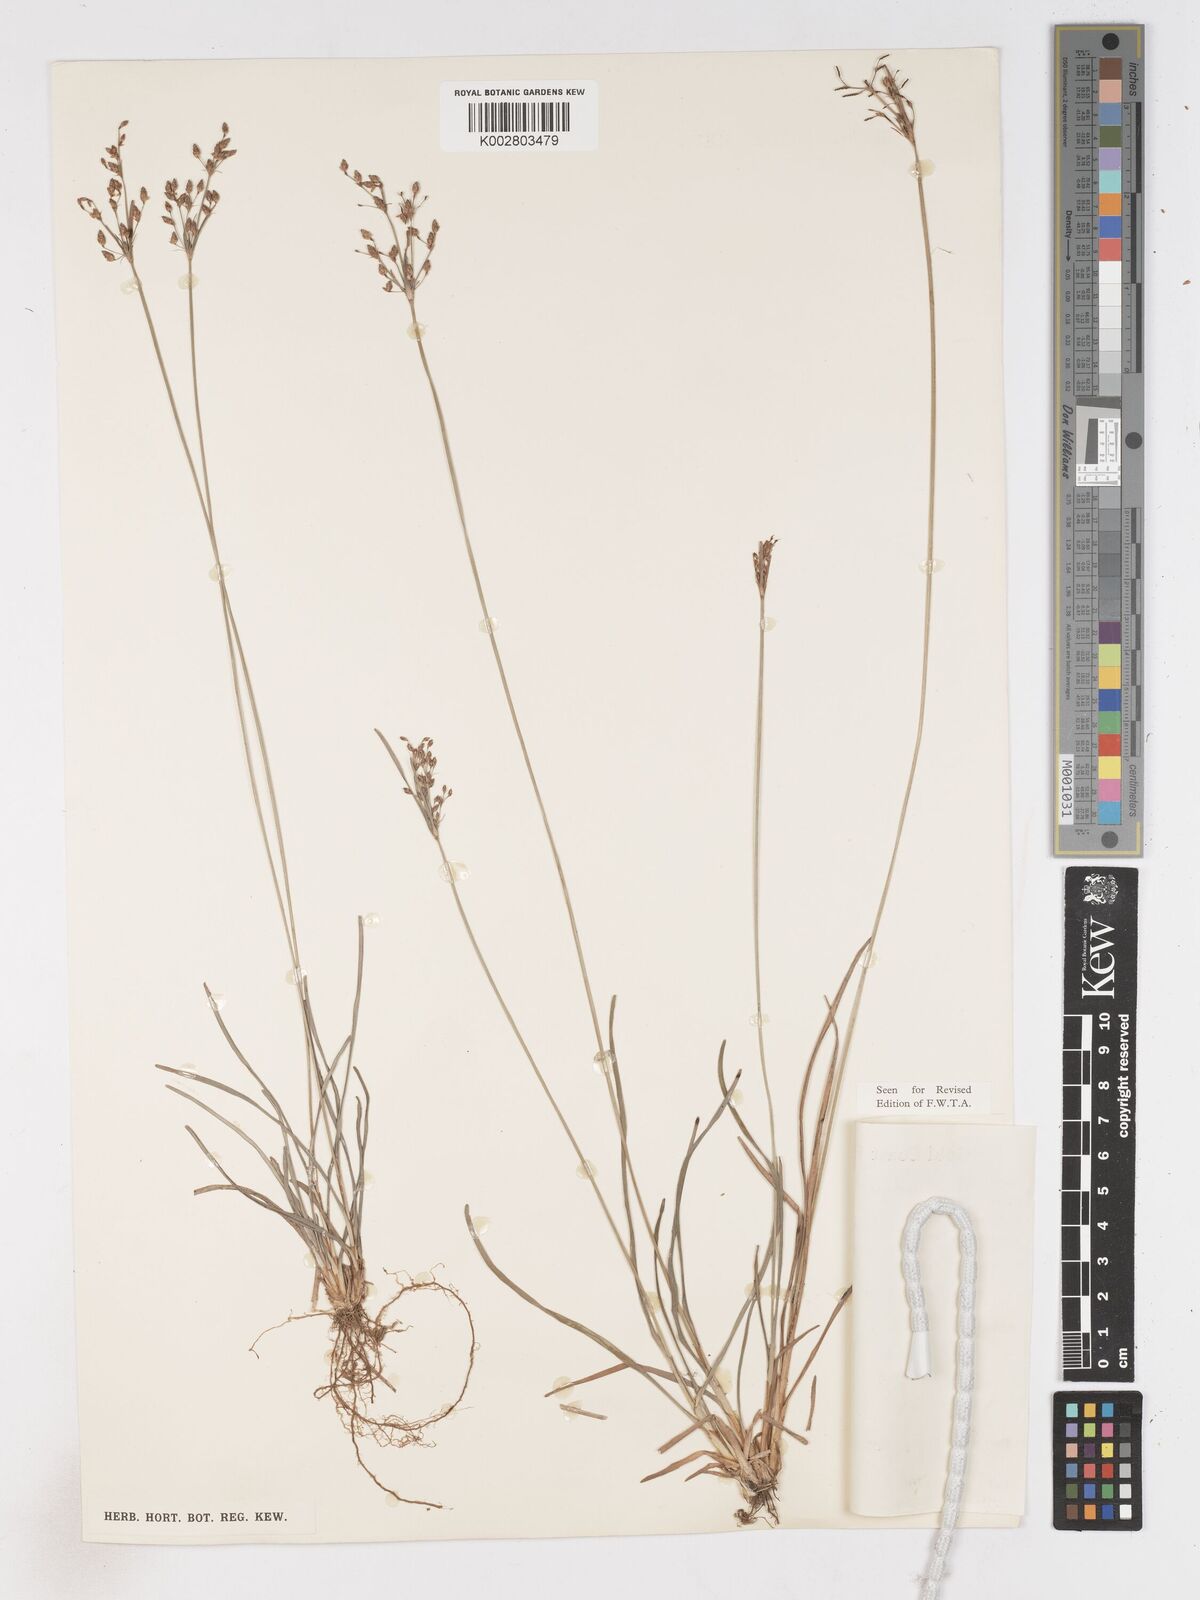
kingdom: Plantae
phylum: Tracheophyta
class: Liliopsida
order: Poales
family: Cyperaceae
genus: Fimbristylis
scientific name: Fimbristylis dichotoma
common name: Forked fimbry
